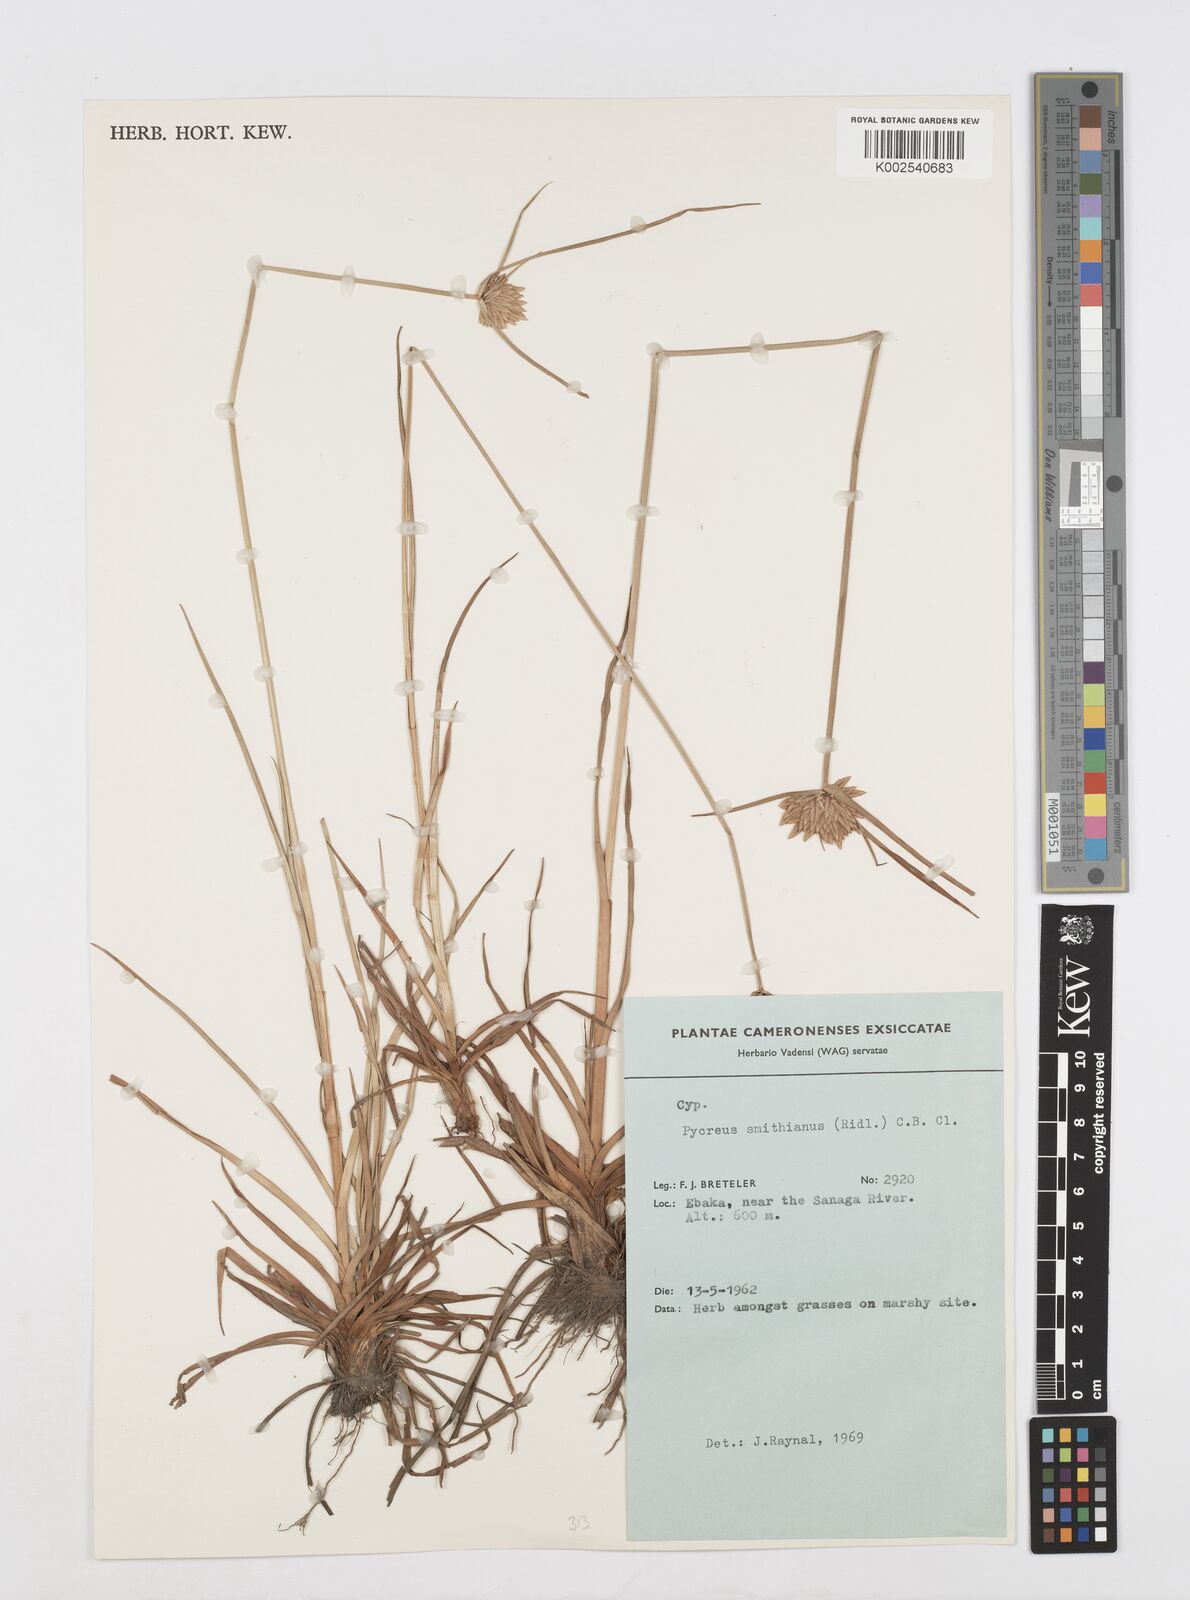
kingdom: Plantae
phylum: Tracheophyta
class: Liliopsida
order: Poales
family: Cyperaceae
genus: Cyperus
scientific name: Cyperus smithianus
